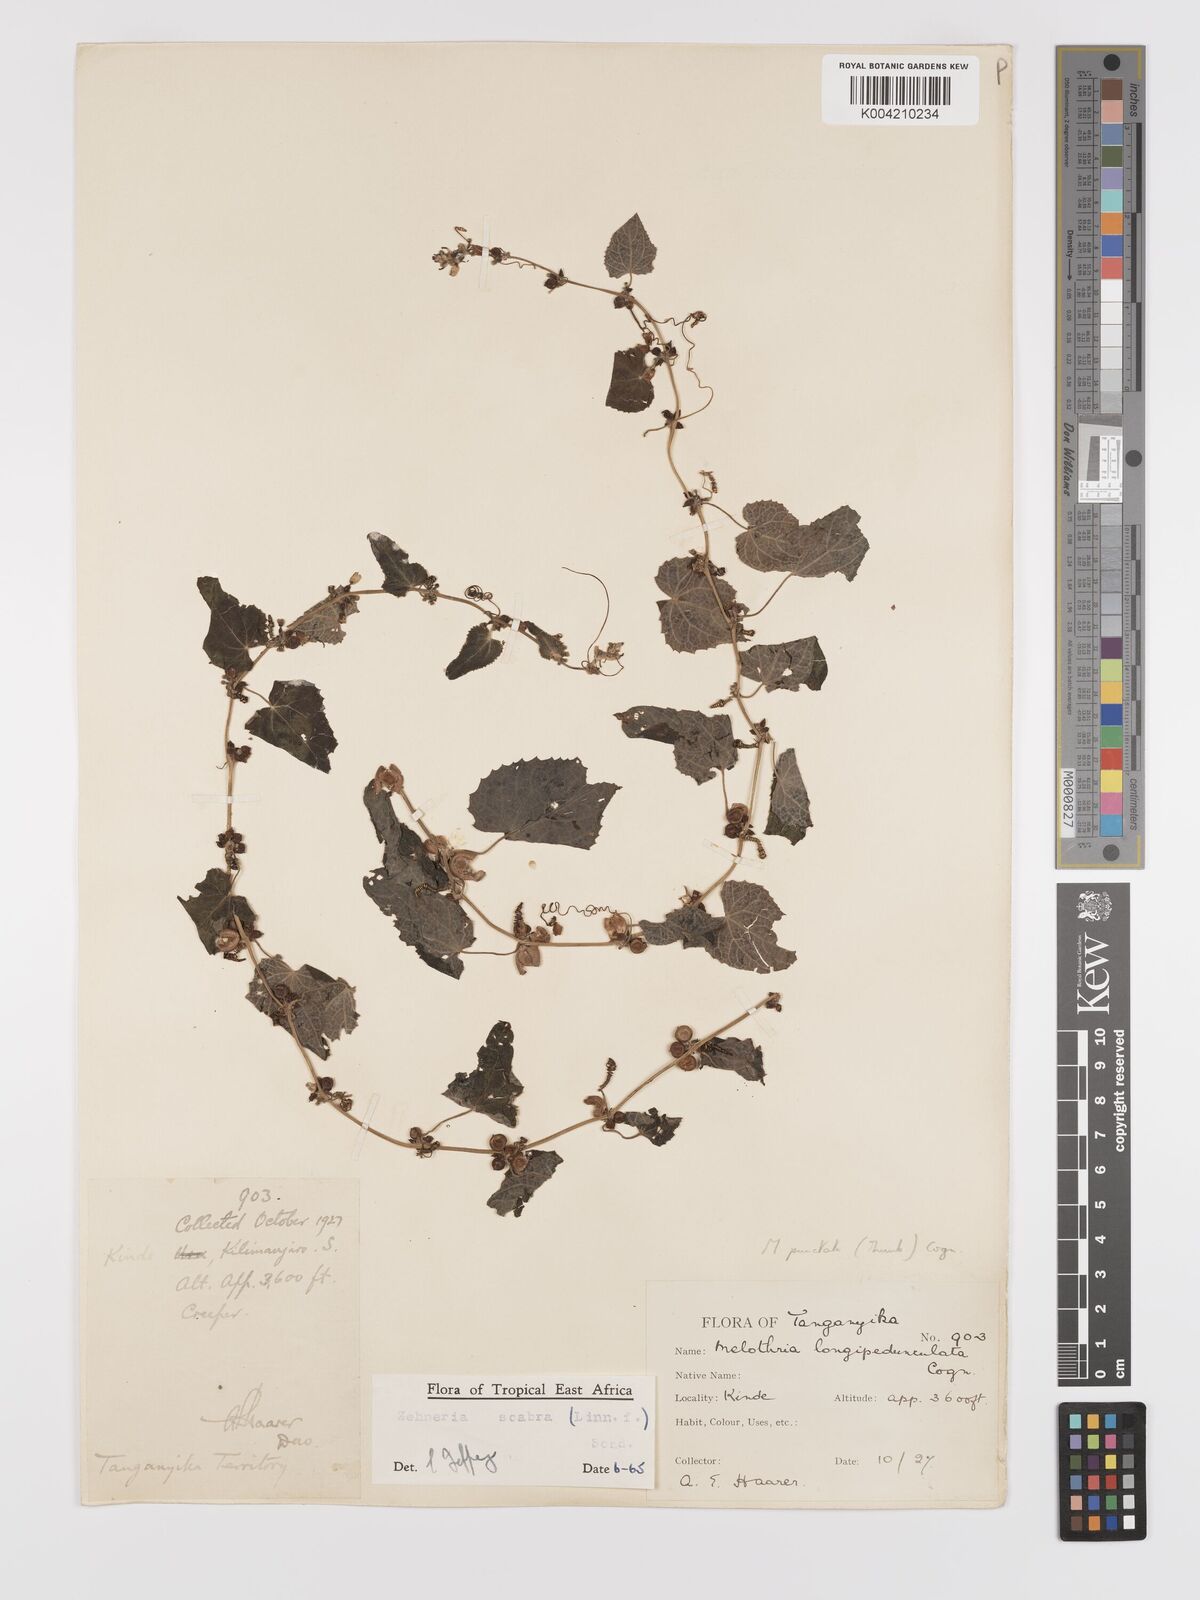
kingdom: Plantae
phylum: Tracheophyta
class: Magnoliopsida
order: Cucurbitales
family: Cucurbitaceae
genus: Zehneria
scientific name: Zehneria scabra
